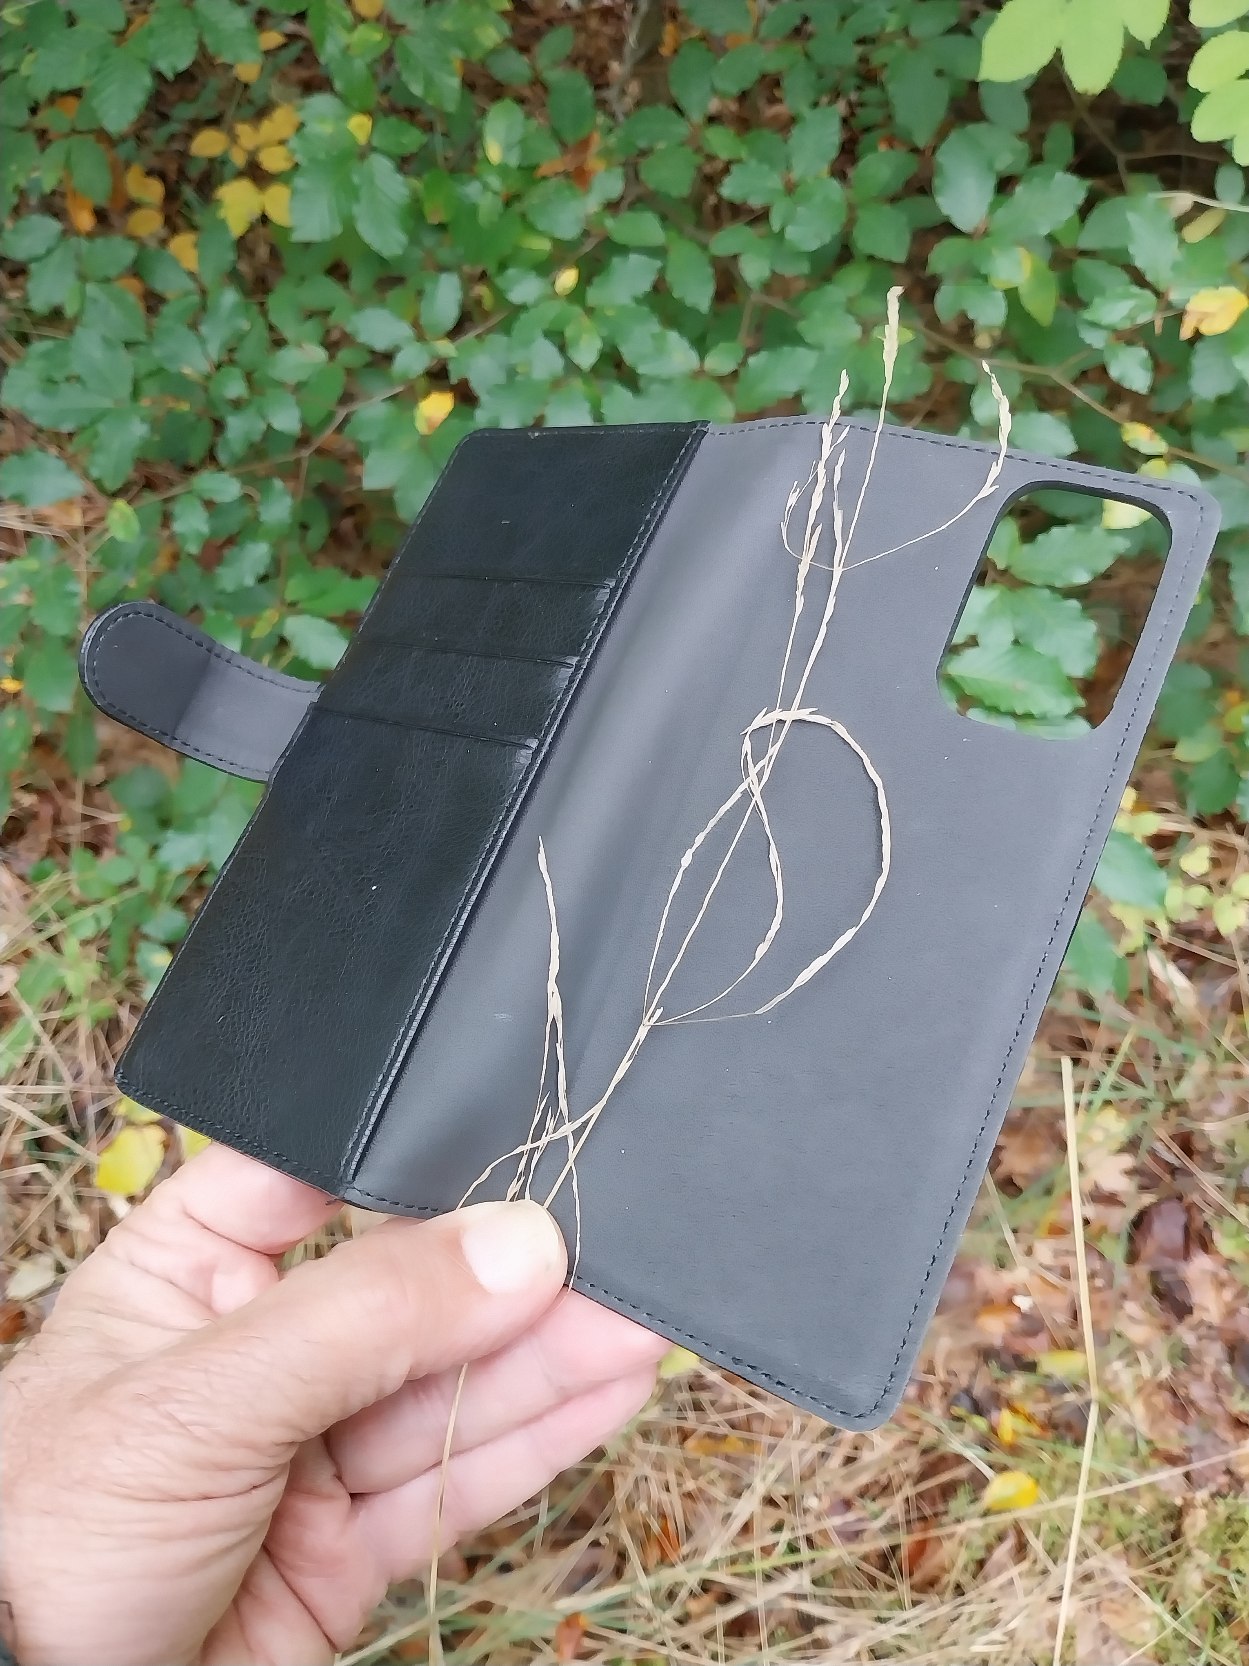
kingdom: Plantae
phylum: Tracheophyta
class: Liliopsida
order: Poales
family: Poaceae
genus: Deschampsia
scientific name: Deschampsia cespitosa
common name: Mose-bunke
